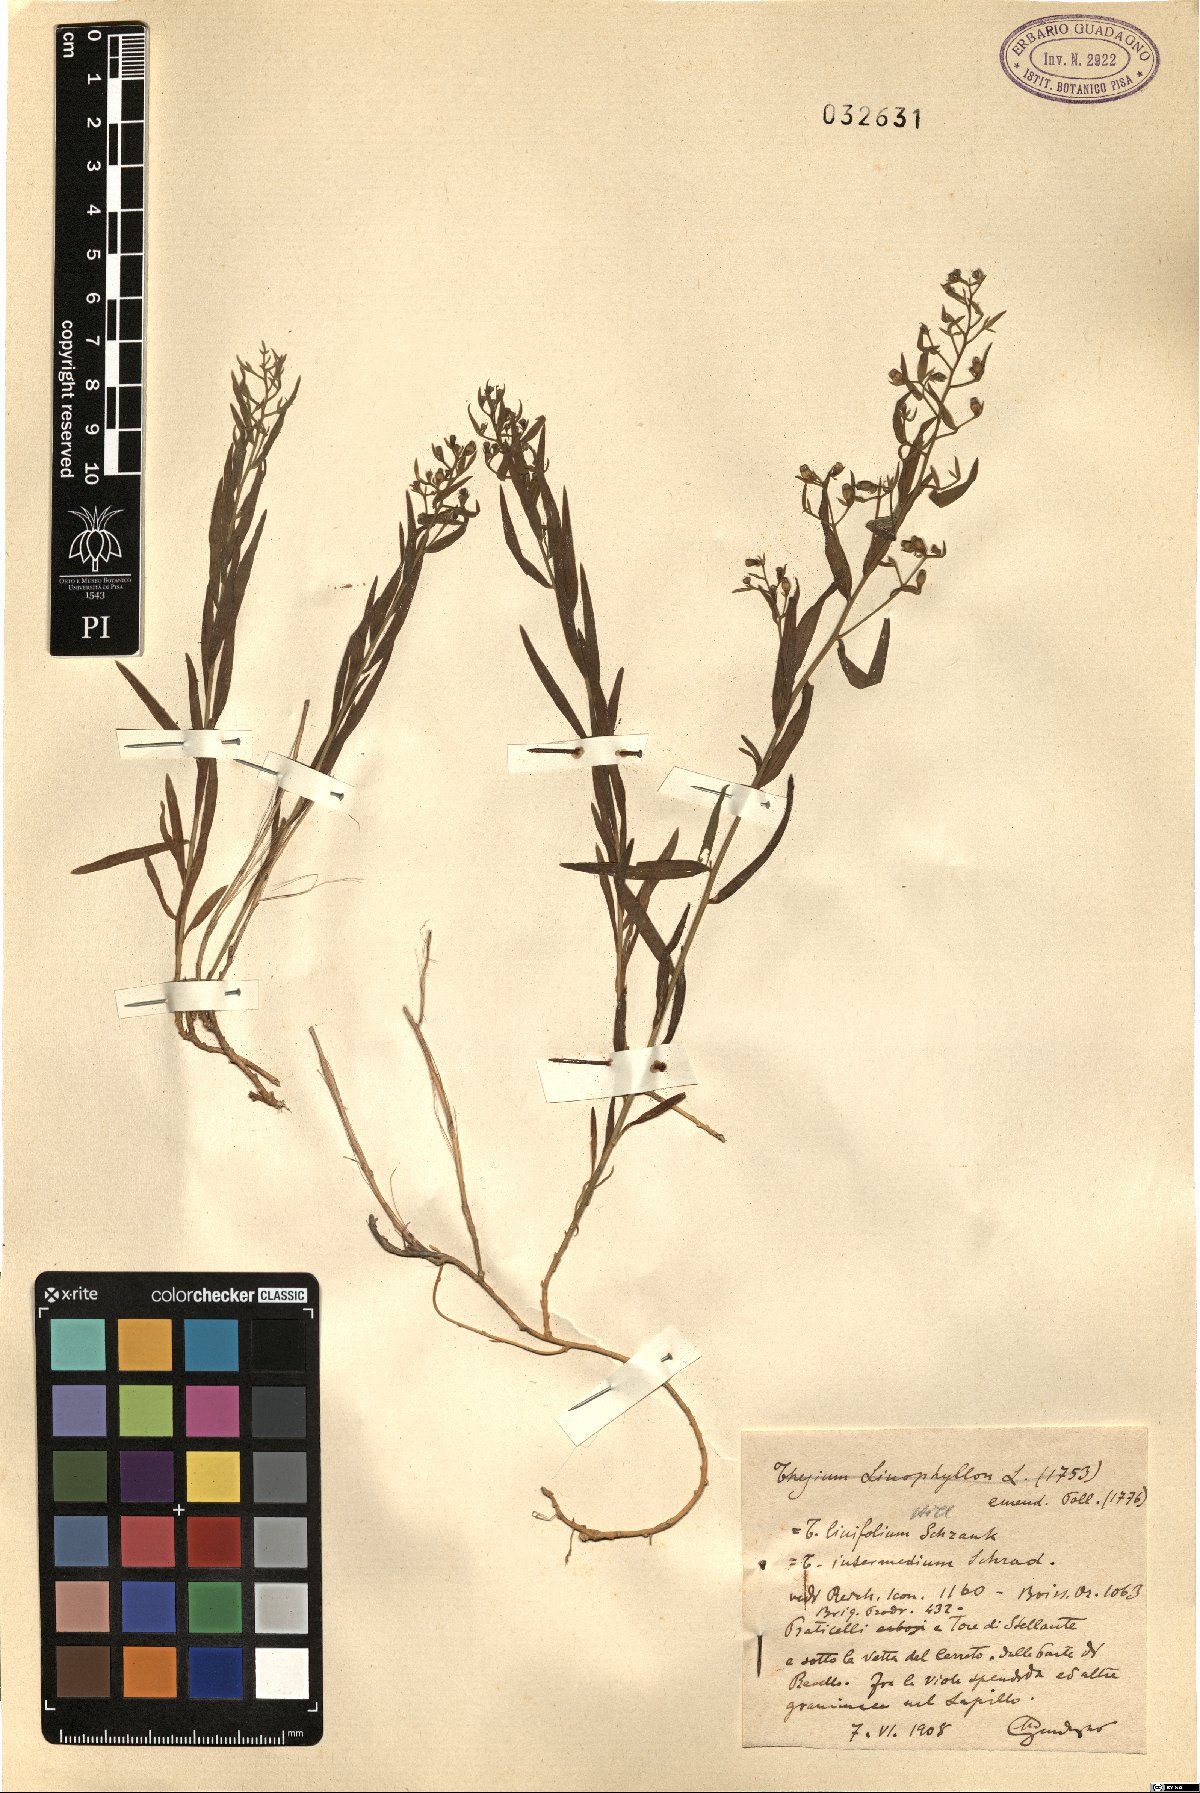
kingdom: Plantae
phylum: Tracheophyta
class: Magnoliopsida
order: Santalales
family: Thesiaceae
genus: Thesium
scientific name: Thesium linophyllon
